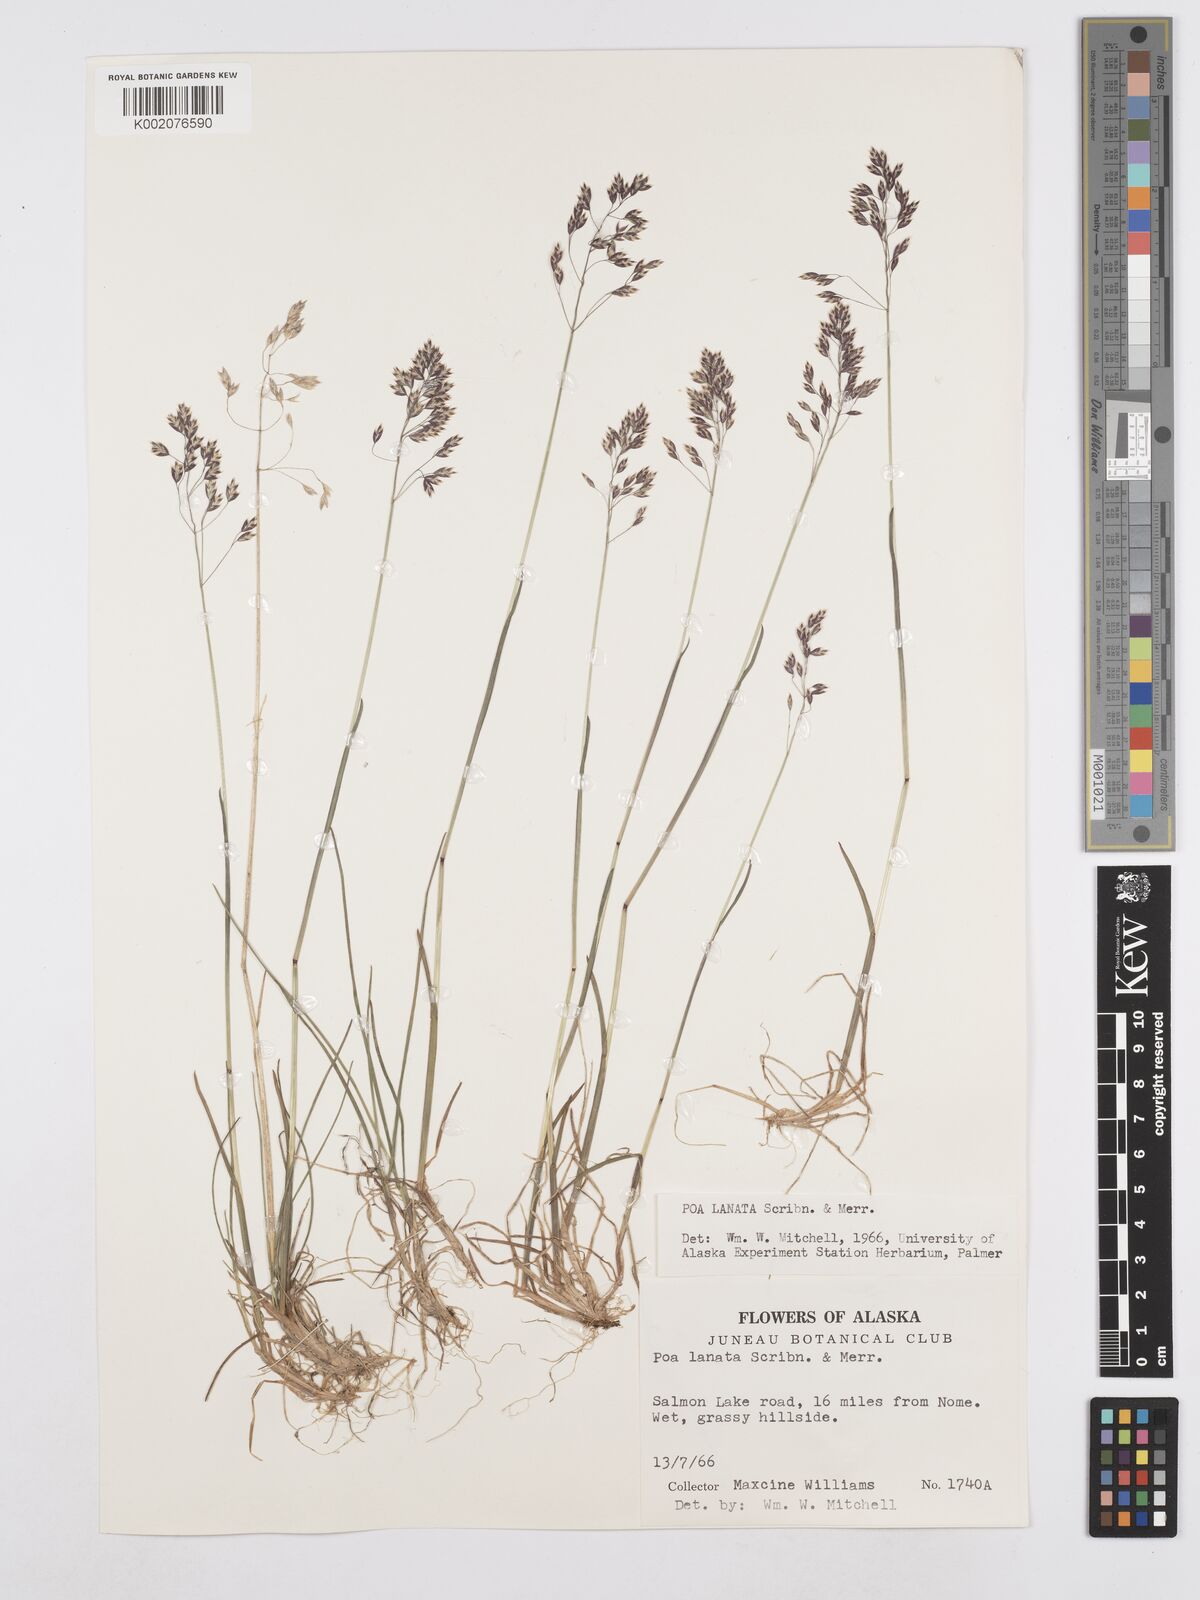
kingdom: Plantae
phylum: Tracheophyta
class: Liliopsida
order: Poales
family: Poaceae
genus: Poa
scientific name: Poa lanata
